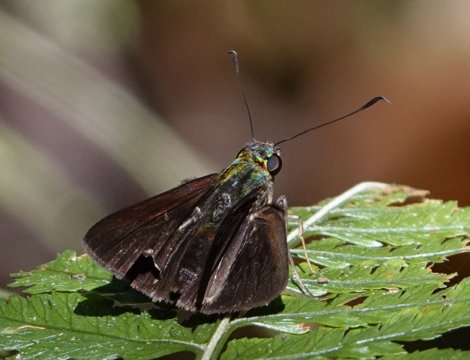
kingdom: Animalia
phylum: Arthropoda
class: Insecta
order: Lepidoptera
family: Hesperiidae
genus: Euphyes
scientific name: Euphyes antra
